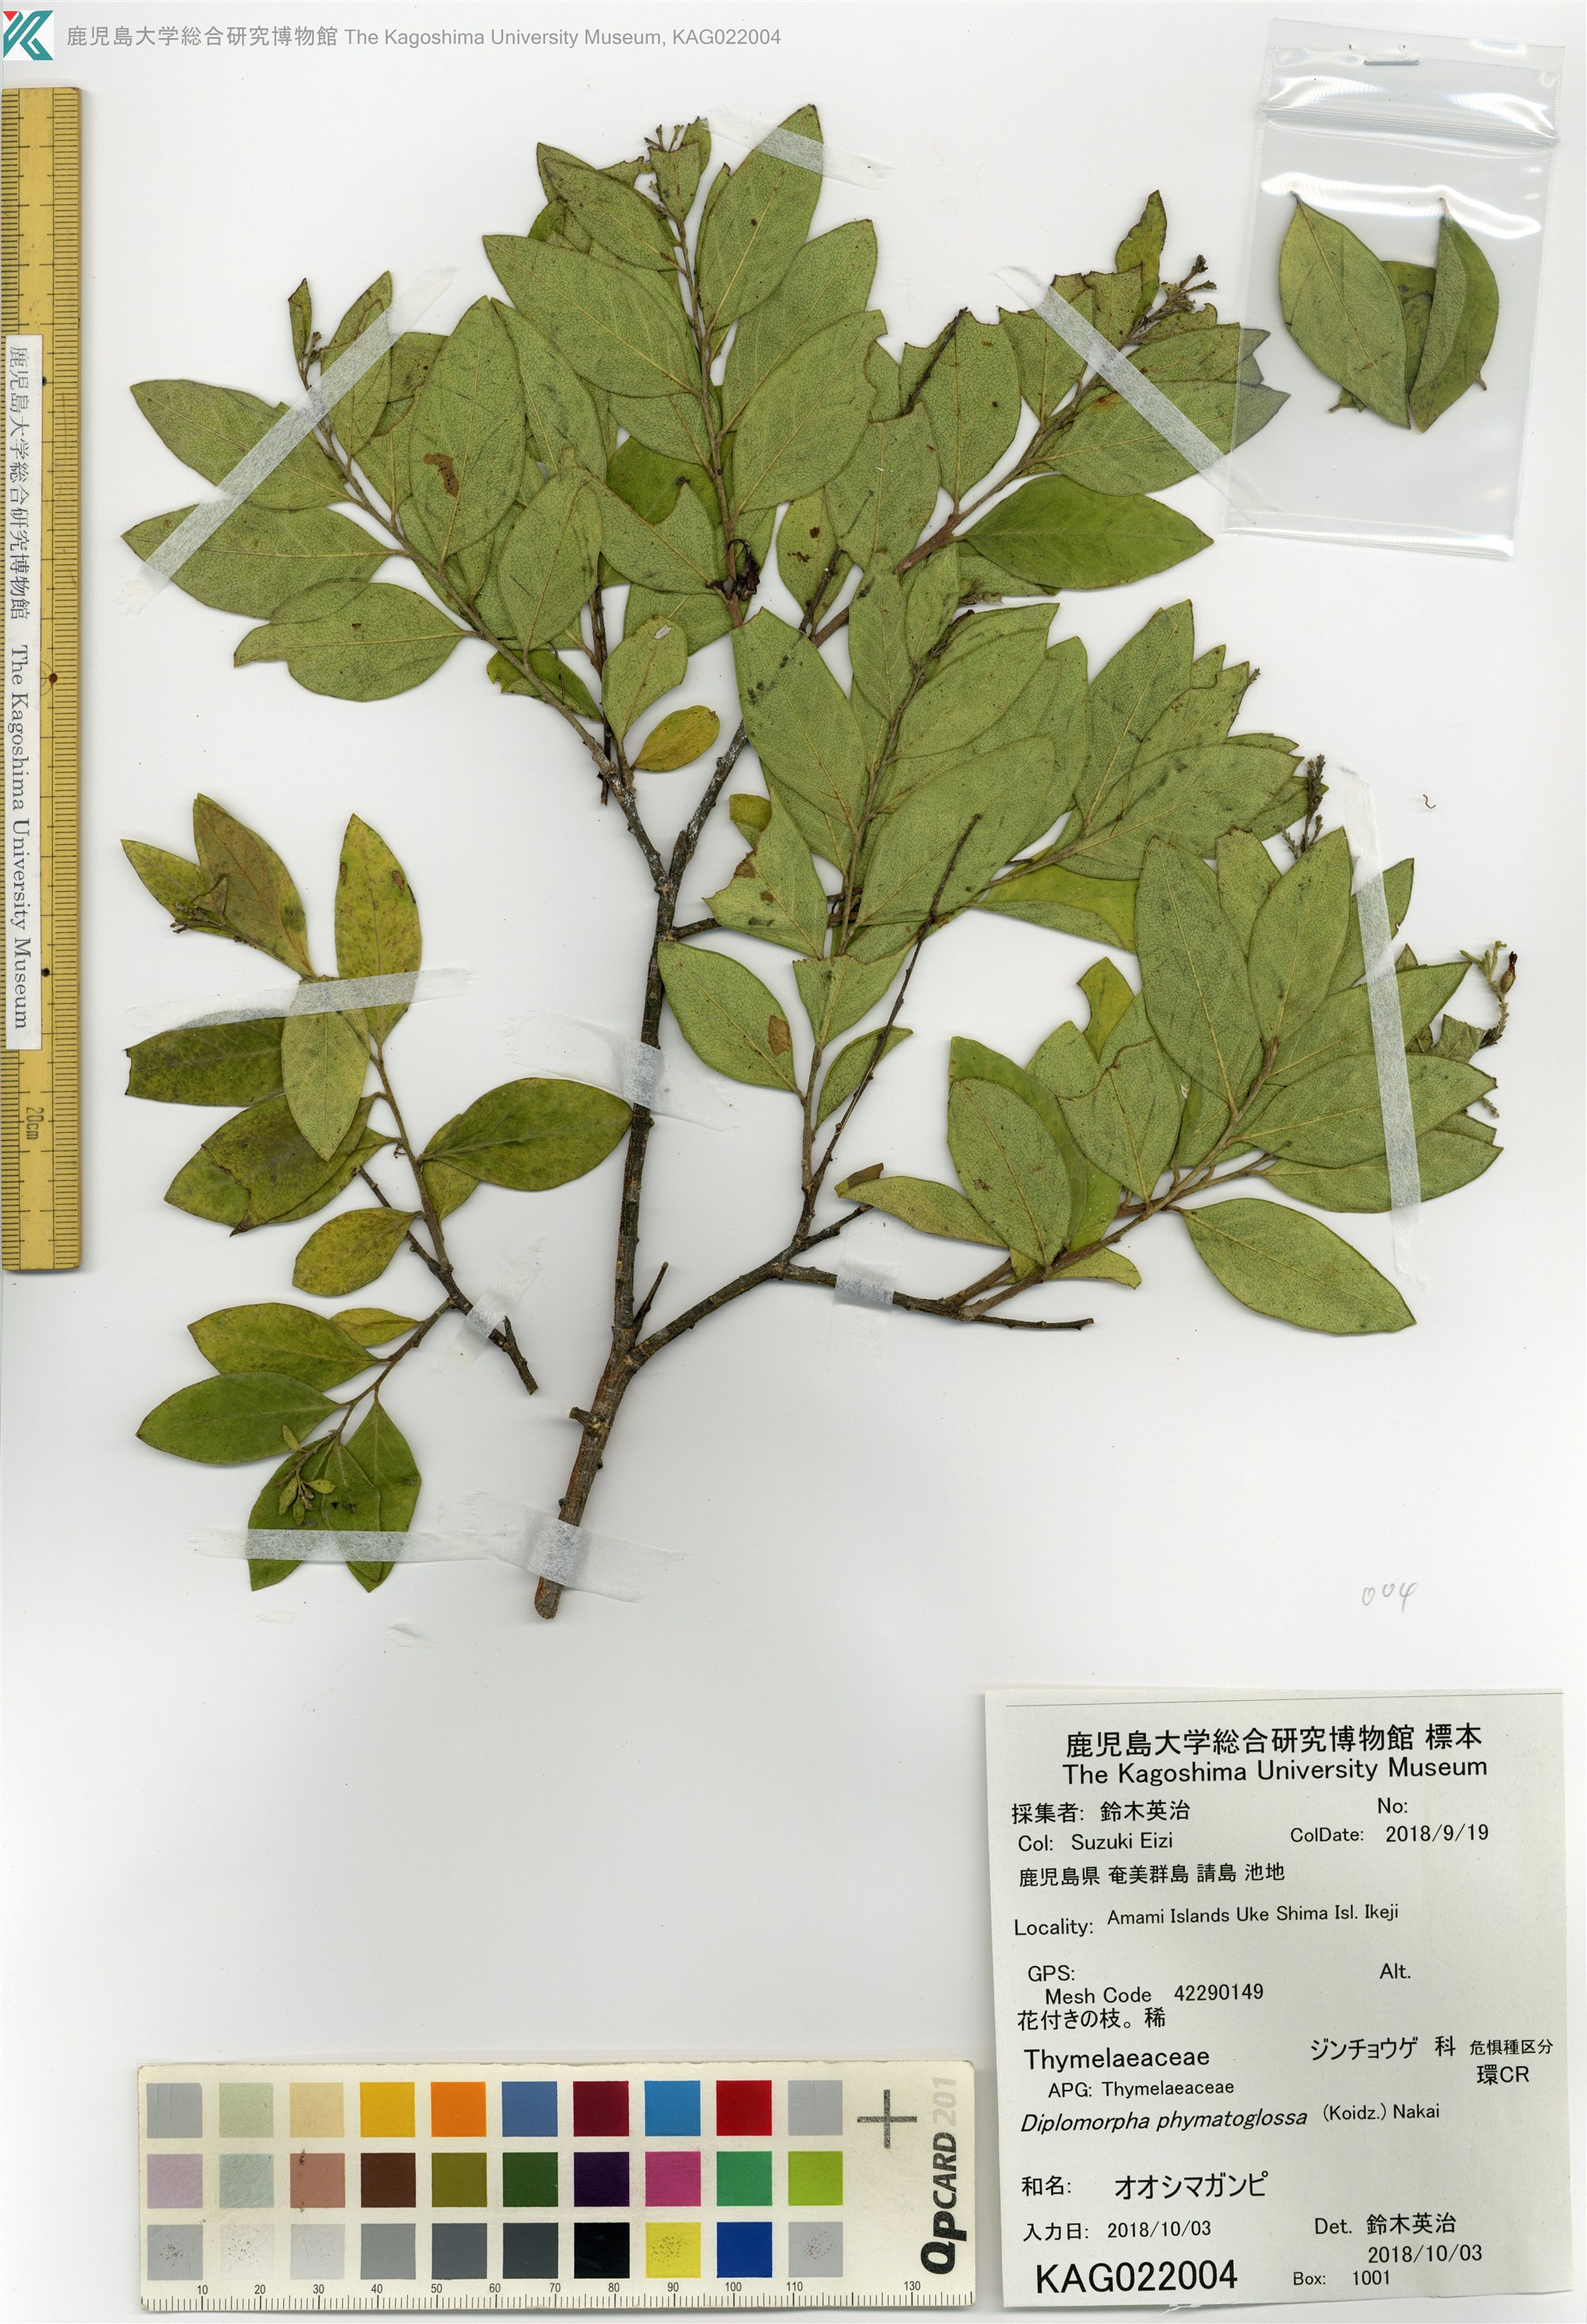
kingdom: Plantae
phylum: Tracheophyta
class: Magnoliopsida
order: Malvales
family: Thymelaeaceae
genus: Wikstroemia
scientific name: Wikstroemia phymatoglossa
